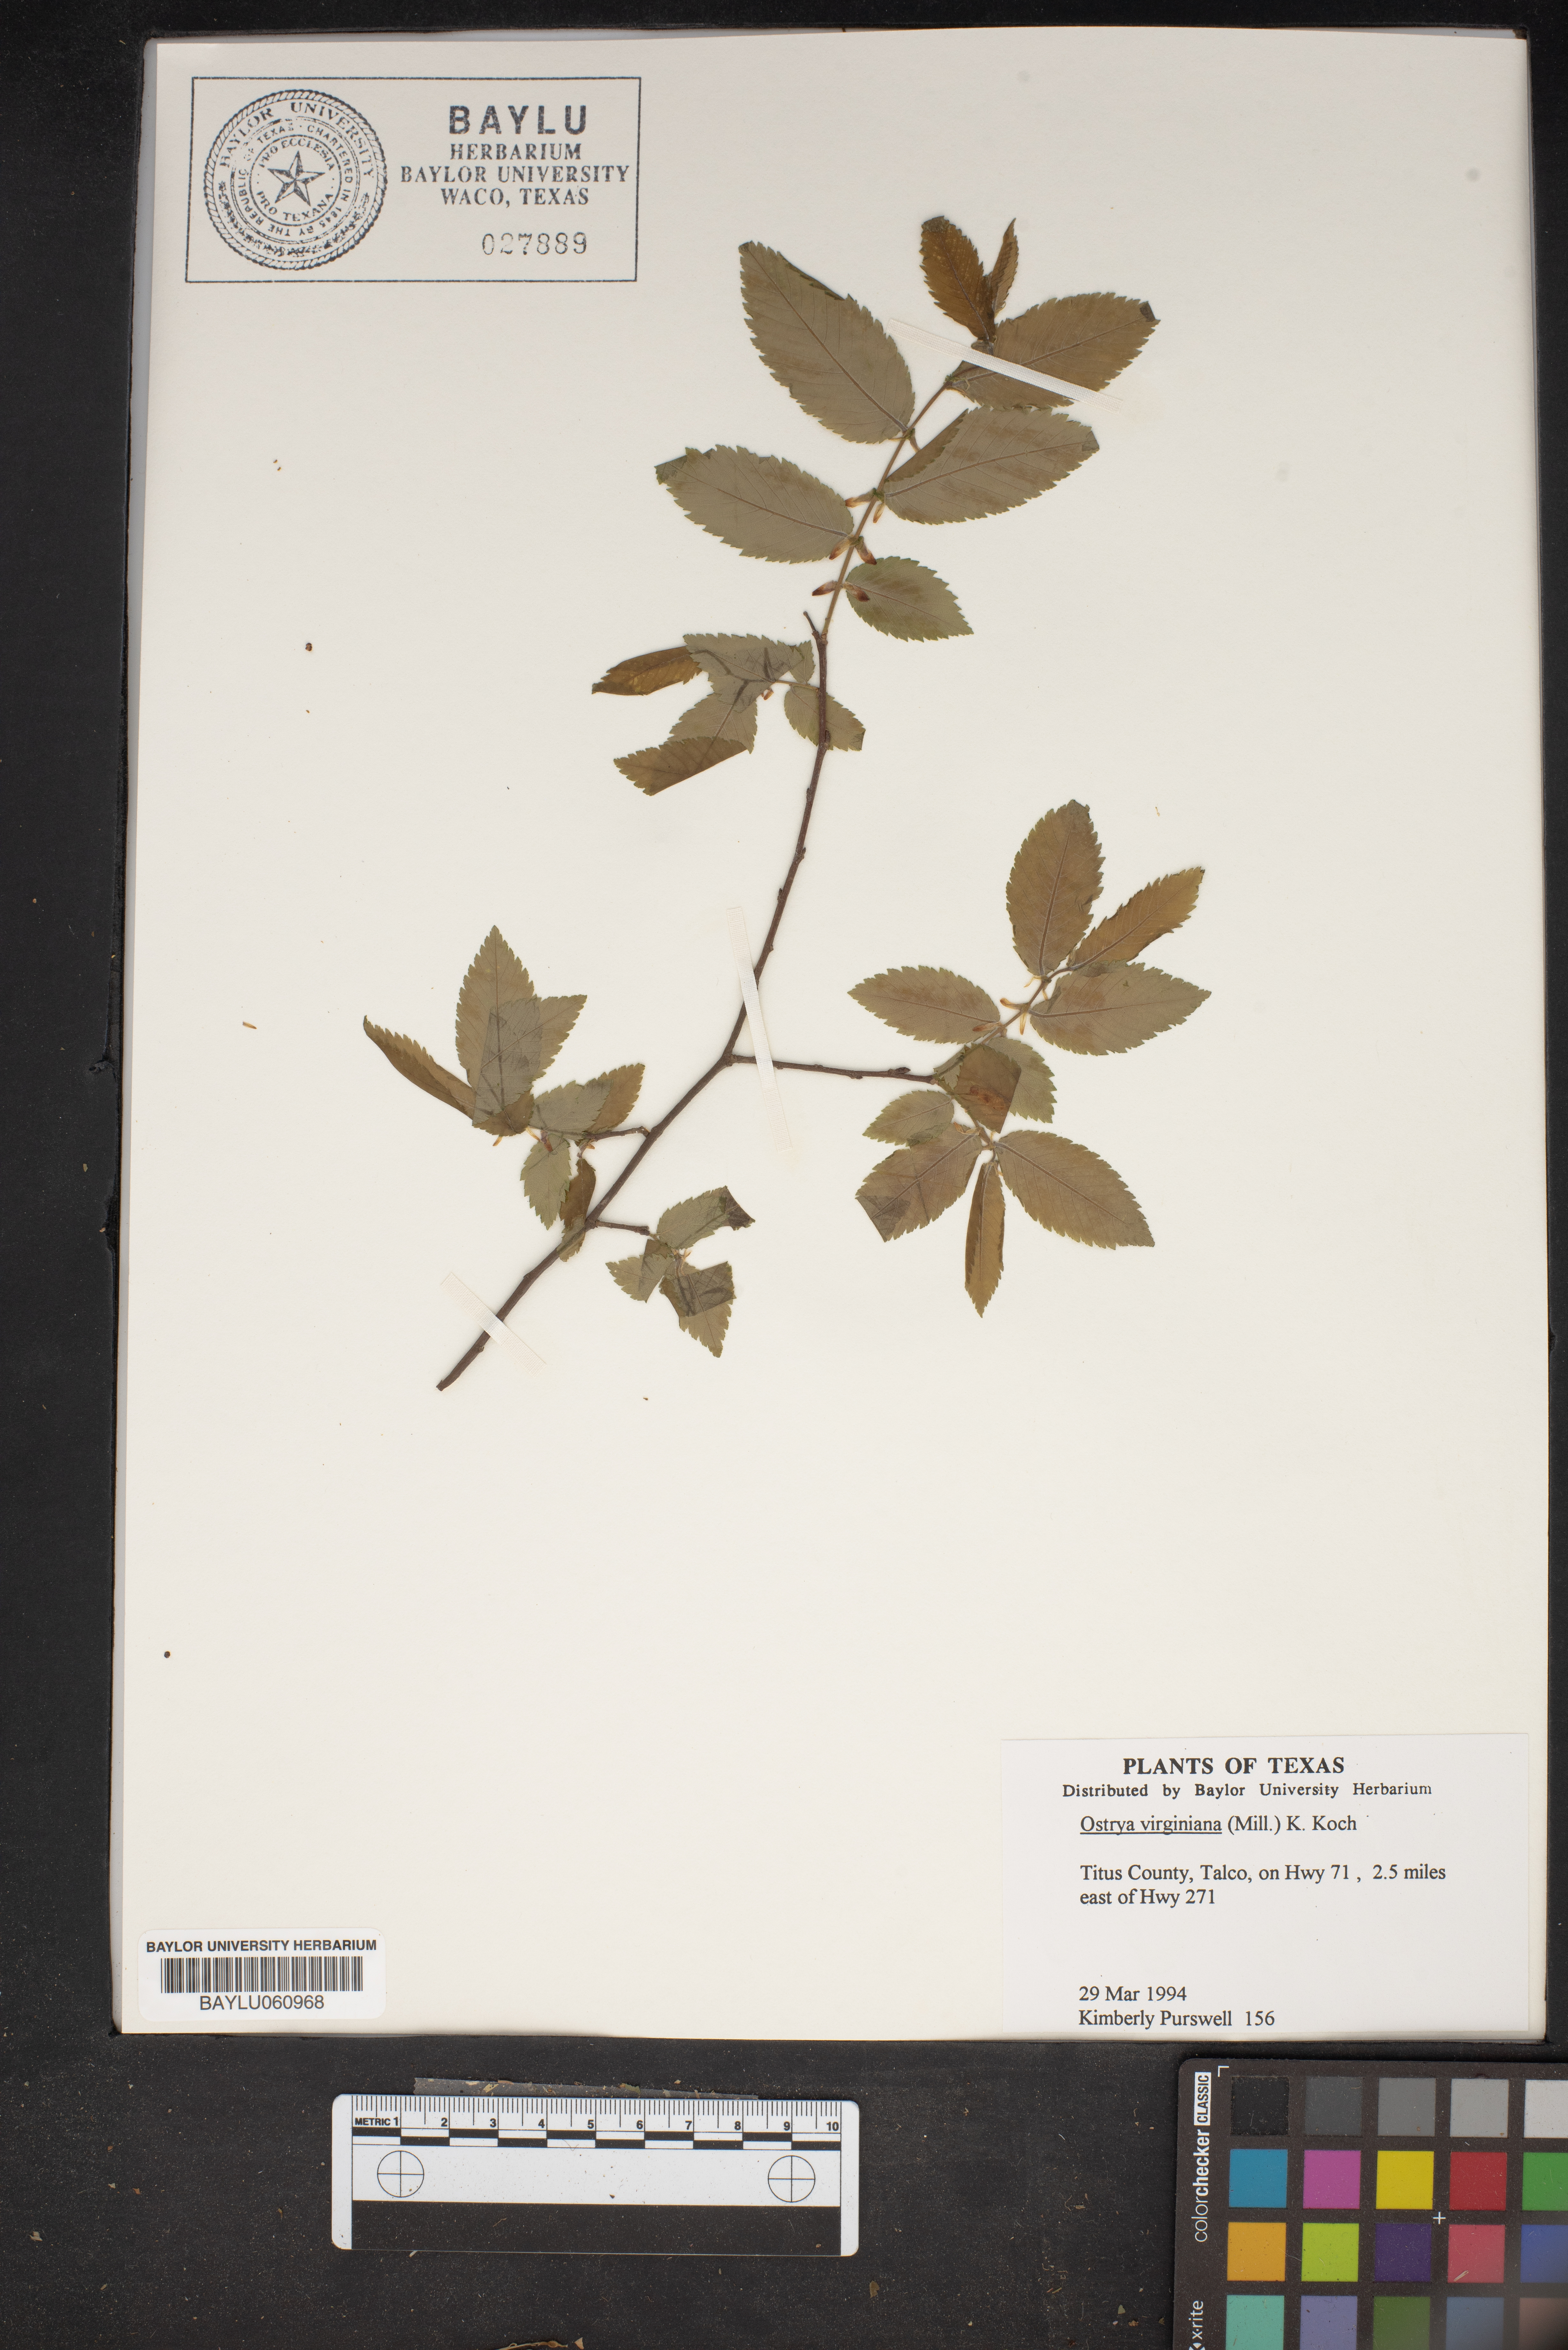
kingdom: Plantae
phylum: Tracheophyta
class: Magnoliopsida
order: Fagales
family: Betulaceae
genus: Ostrya
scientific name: Ostrya virginiana
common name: Ironwood
